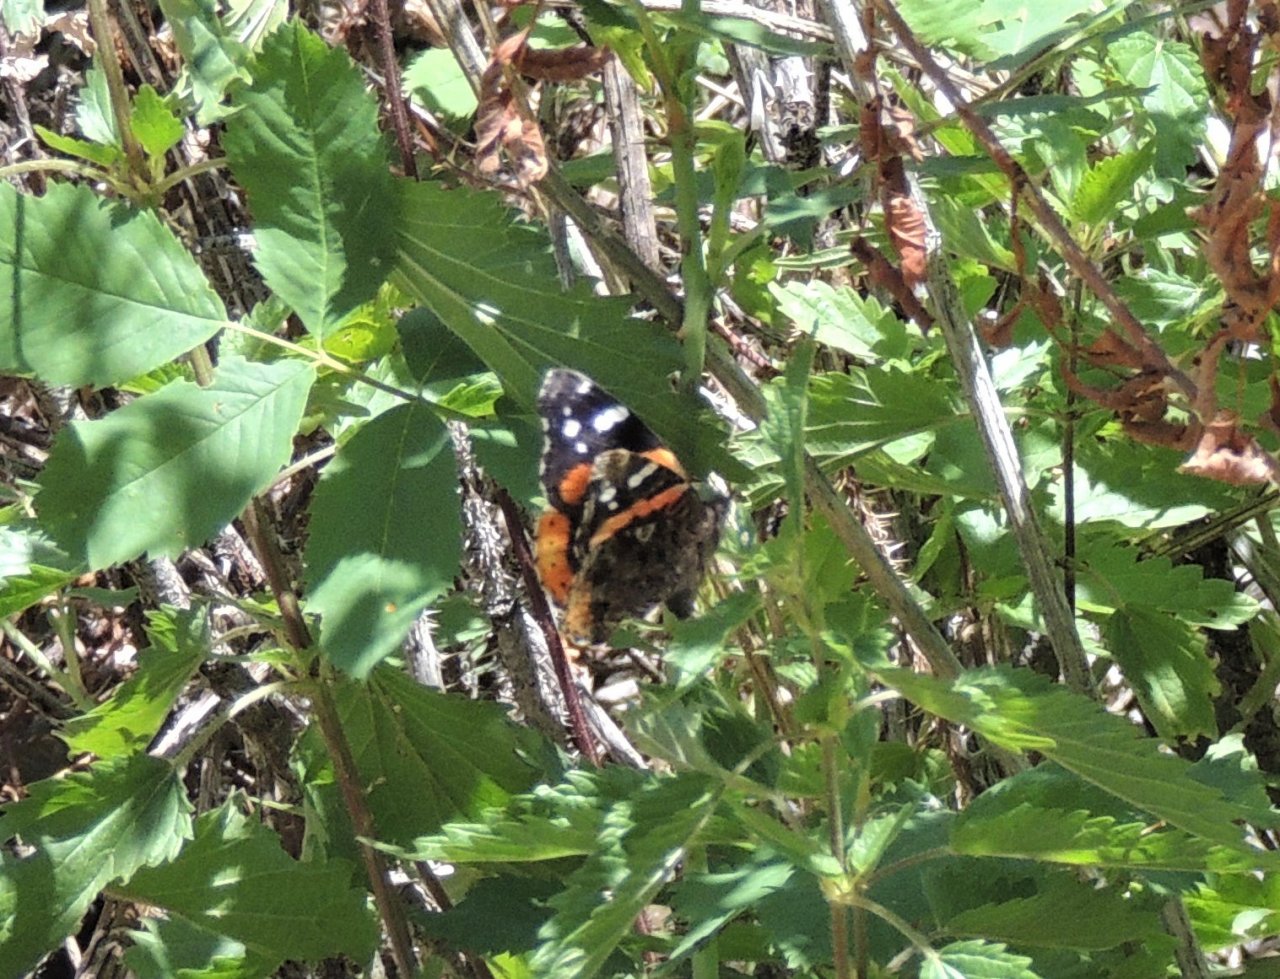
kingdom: Animalia
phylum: Arthropoda
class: Insecta
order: Lepidoptera
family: Nymphalidae
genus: Vanessa
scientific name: Vanessa atalanta
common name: Red Admiral
